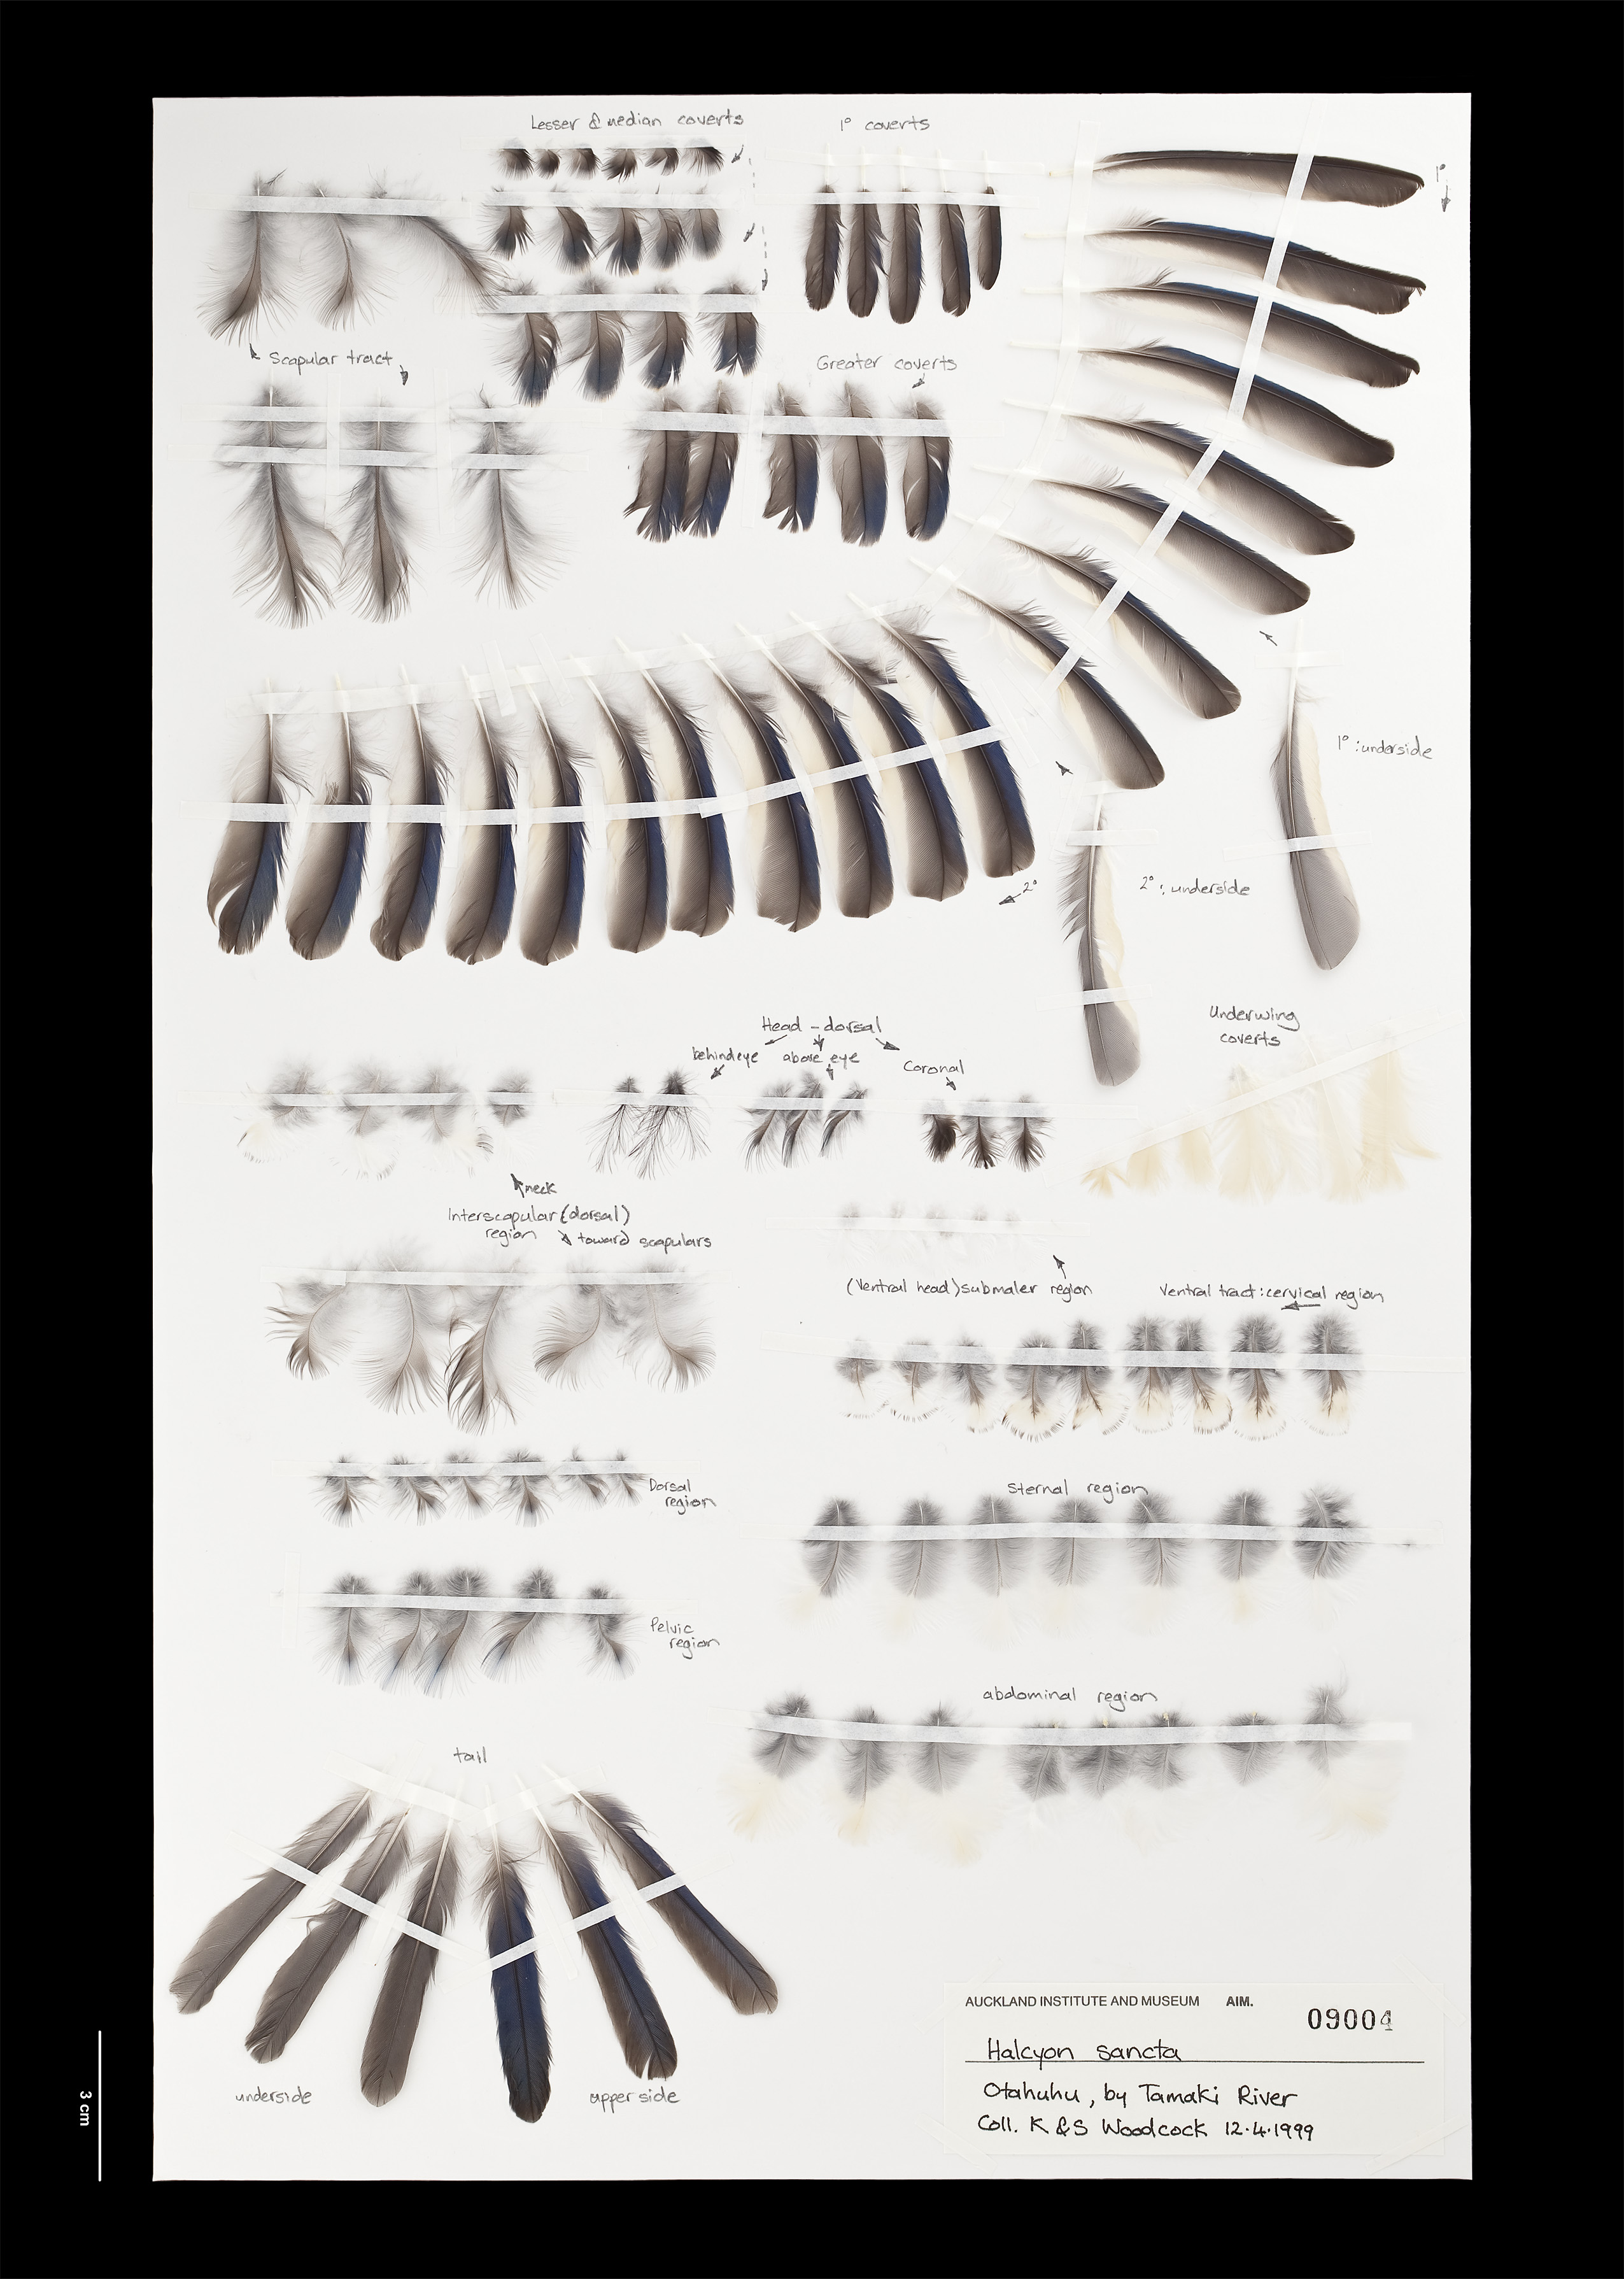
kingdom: Animalia
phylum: Chordata
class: Aves
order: Coraciiformes
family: Alcedinidae
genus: Todiramphus
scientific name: Todiramphus sanctus
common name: Sacred kingfisher
